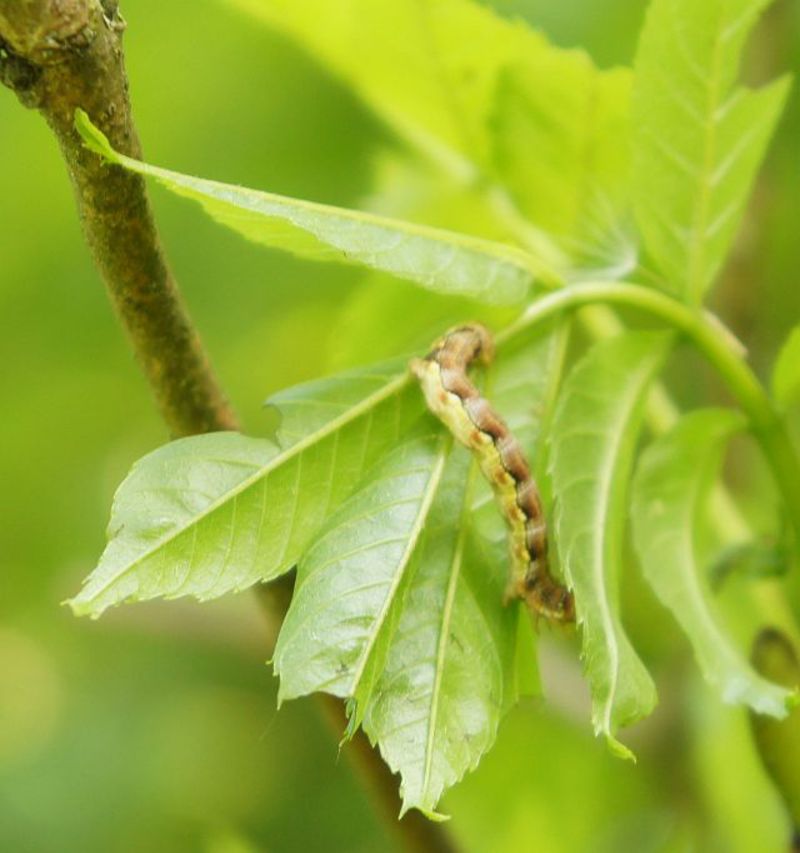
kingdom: Animalia
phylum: Arthropoda
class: Insecta
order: Lepidoptera
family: Geometridae
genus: Erannis
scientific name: Erannis defoliaria
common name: Mottled umber
